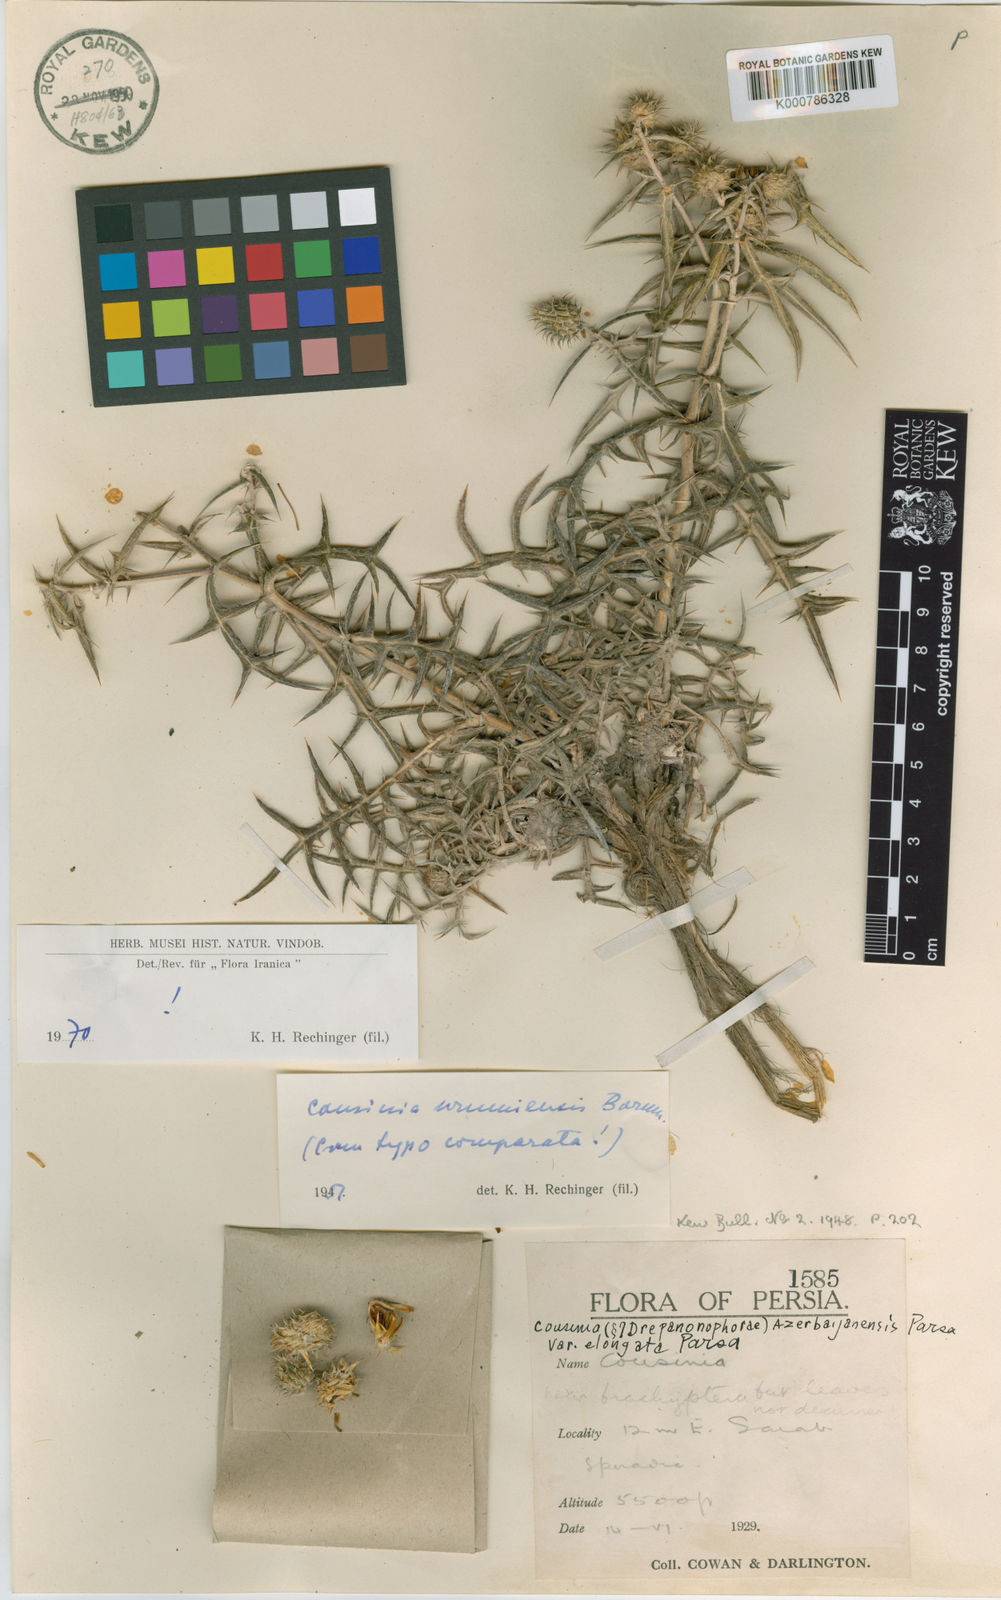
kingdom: Plantae
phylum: Tracheophyta
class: Magnoliopsida
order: Asterales
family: Asteraceae
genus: Cousinia
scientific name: Cousinia urumiensis
